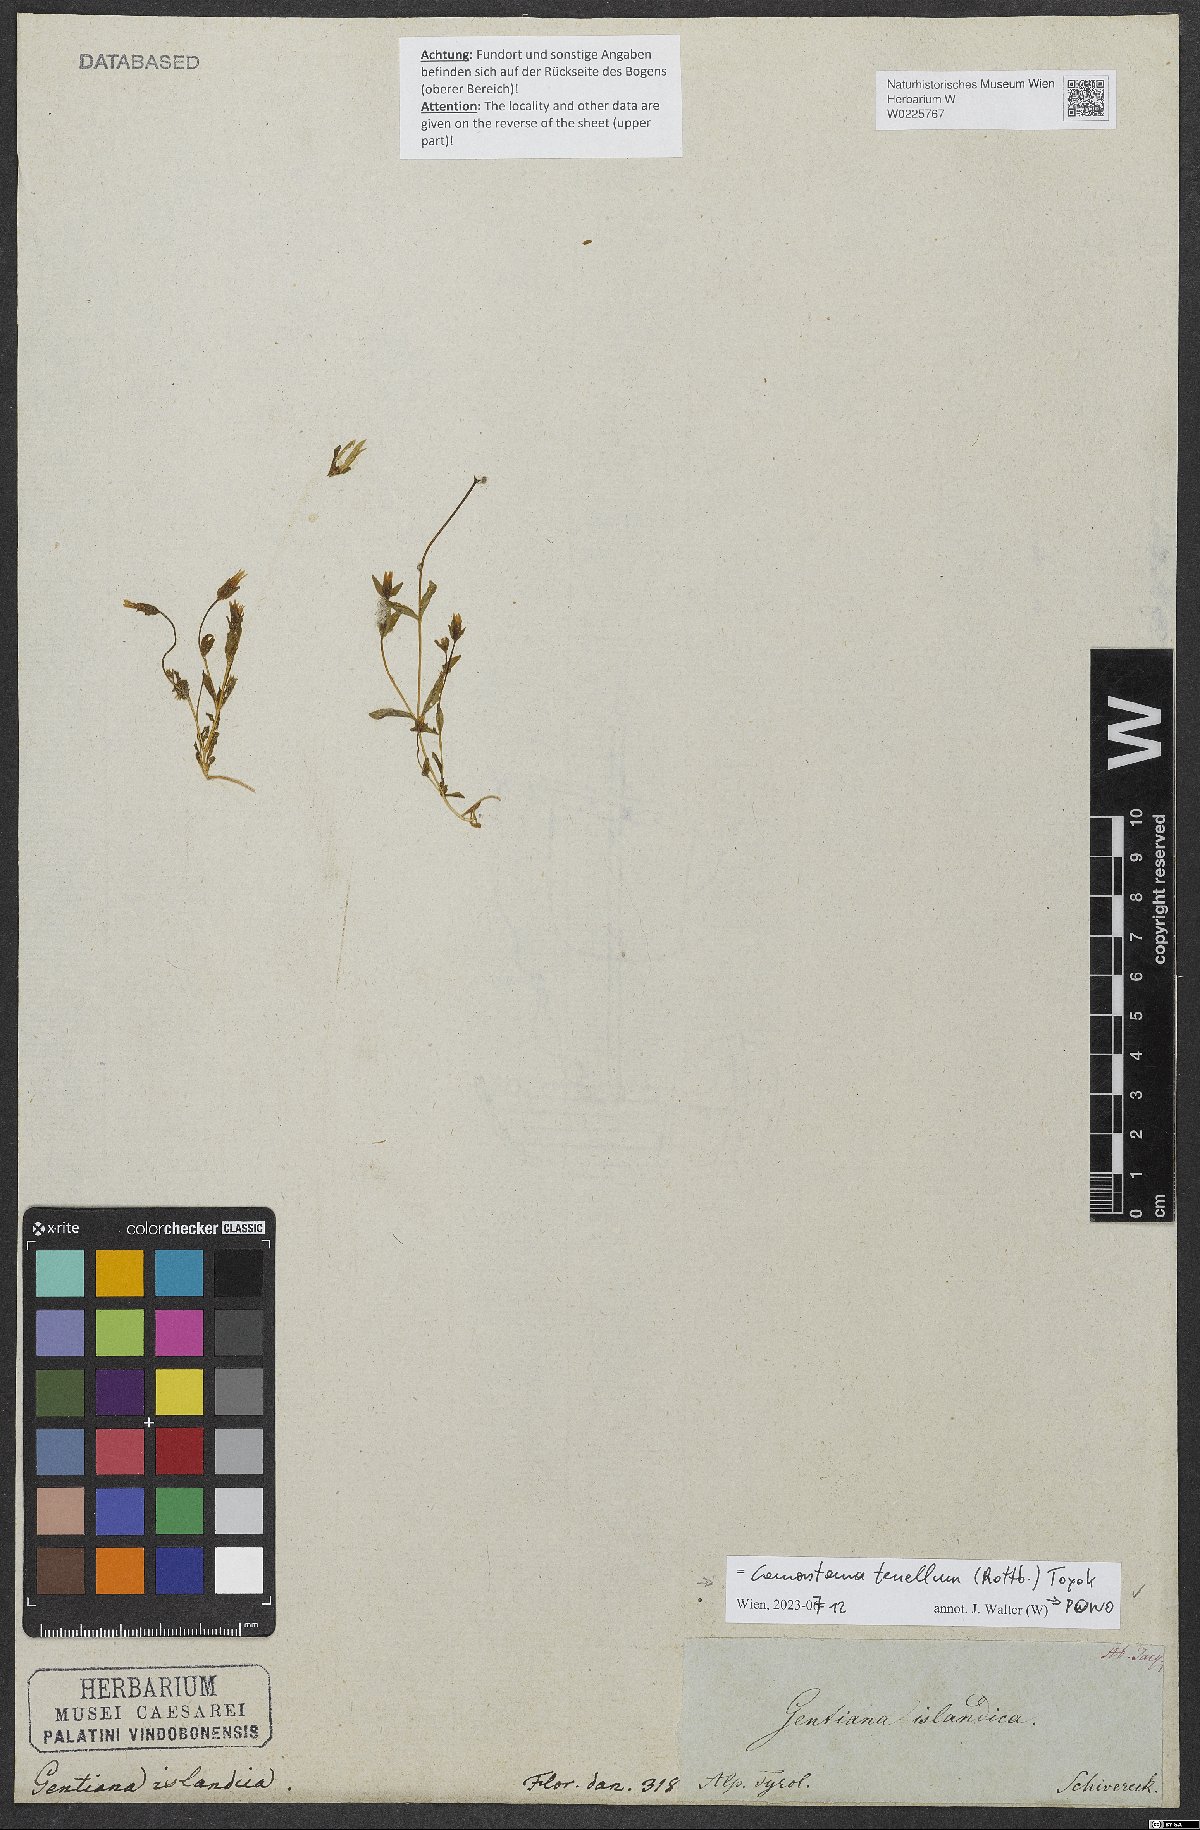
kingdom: Plantae
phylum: Tracheophyta
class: Magnoliopsida
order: Gentianales
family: Gentianaceae
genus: Comastoma
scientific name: Comastoma tenellum
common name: Dane's dwarf gentian
